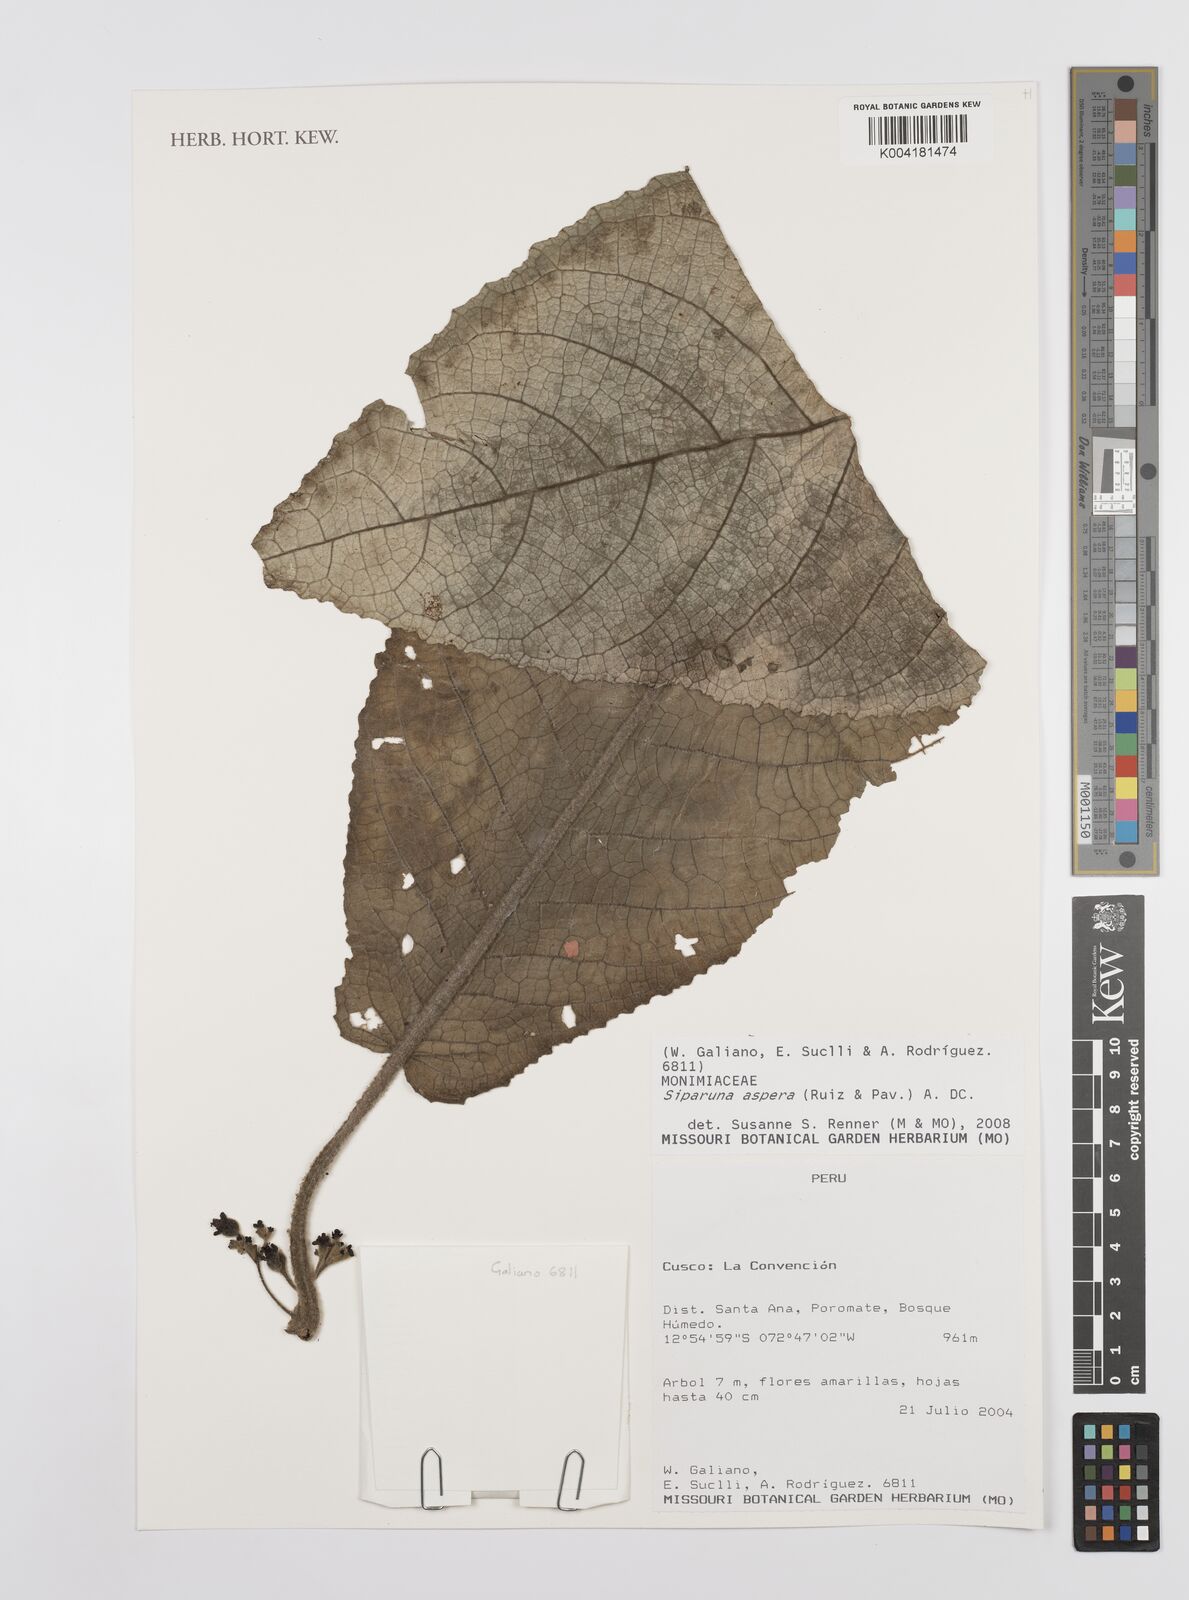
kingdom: Plantae
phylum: Tracheophyta
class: Magnoliopsida
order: Laurales
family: Siparunaceae
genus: Siparuna
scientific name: Siparuna aspera
